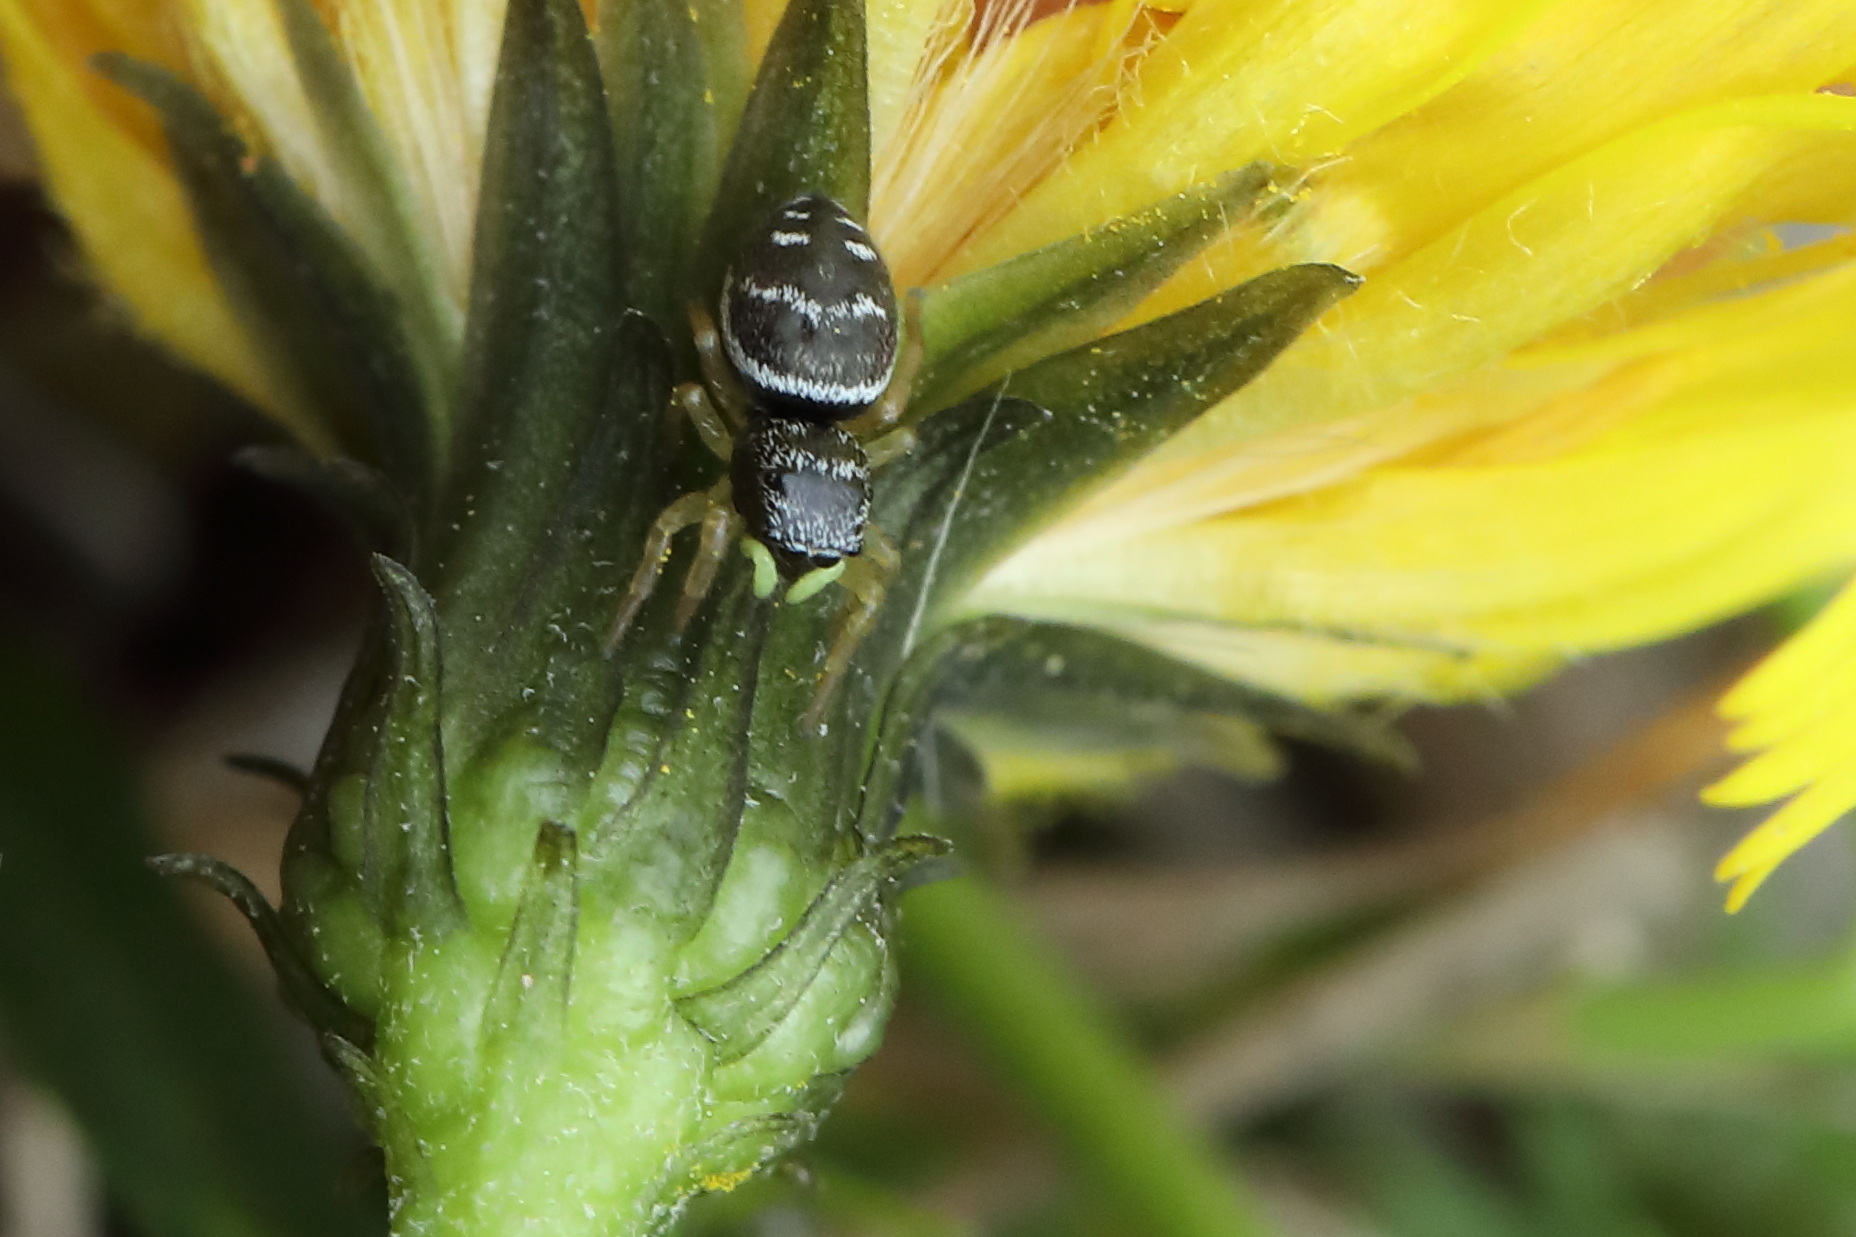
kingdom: Animalia
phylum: Arthropoda
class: Arachnida
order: Araneae
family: Salticidae
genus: Heliophanus
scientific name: Heliophanus
